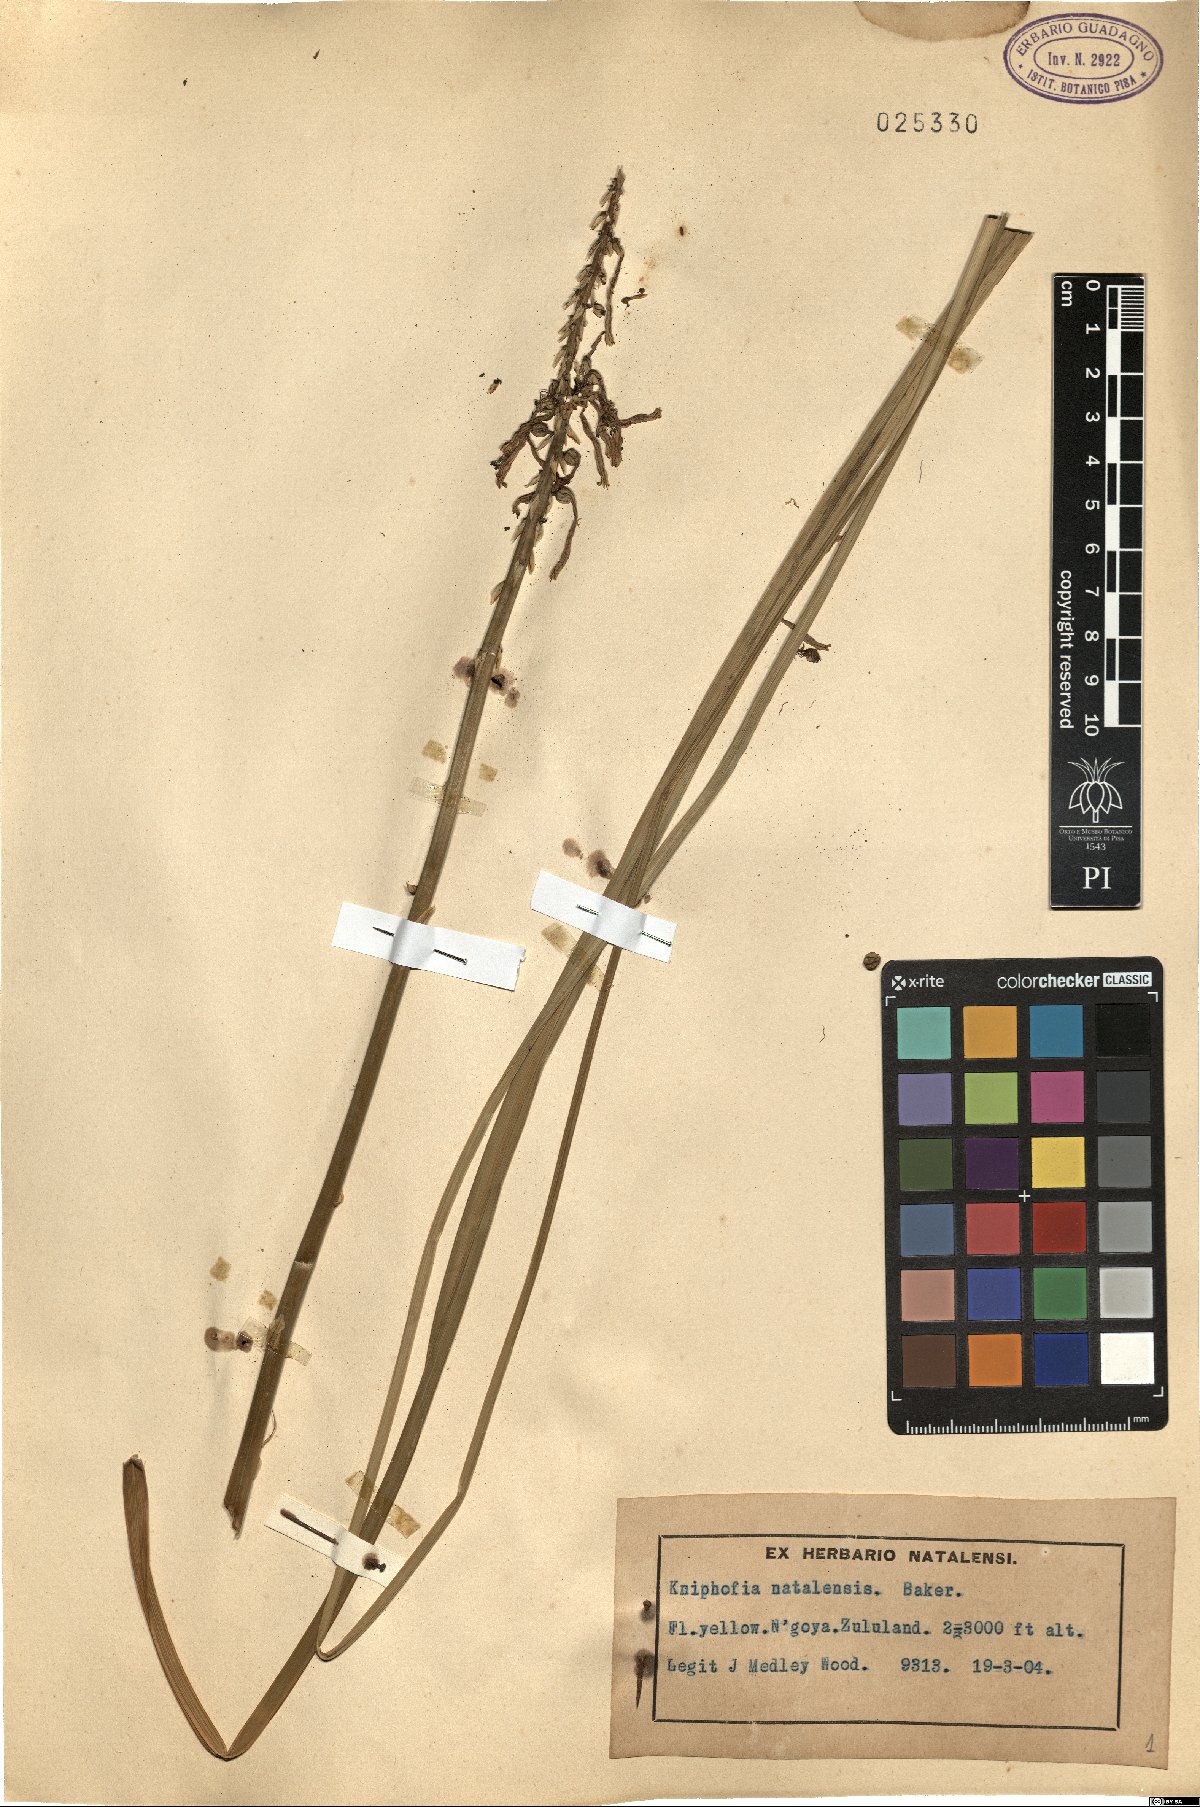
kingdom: Plantae
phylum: Tracheophyta
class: Liliopsida
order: Asparagales
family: Asphodelaceae
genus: Kniphofia
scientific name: Kniphofia laxiflora
